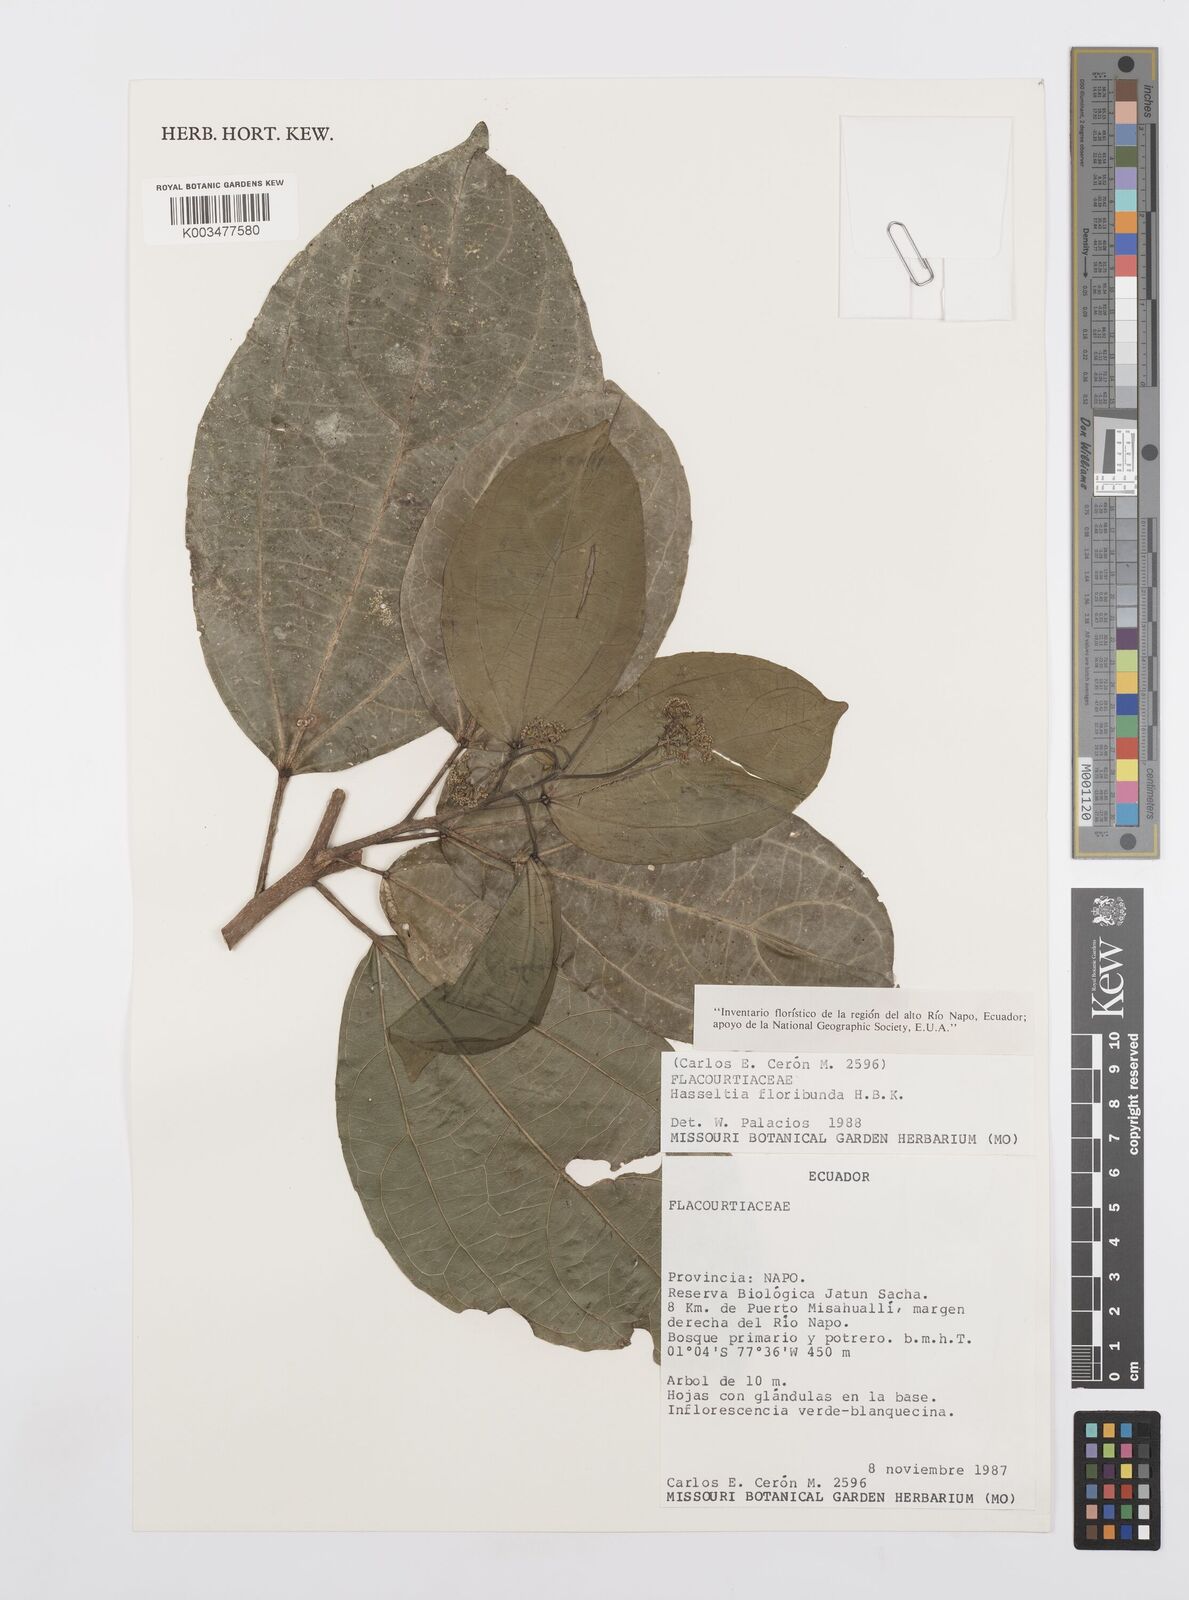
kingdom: Plantae
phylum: Tracheophyta
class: Magnoliopsida
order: Malpighiales
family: Salicaceae
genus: Hasseltia
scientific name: Hasseltia floribunda
